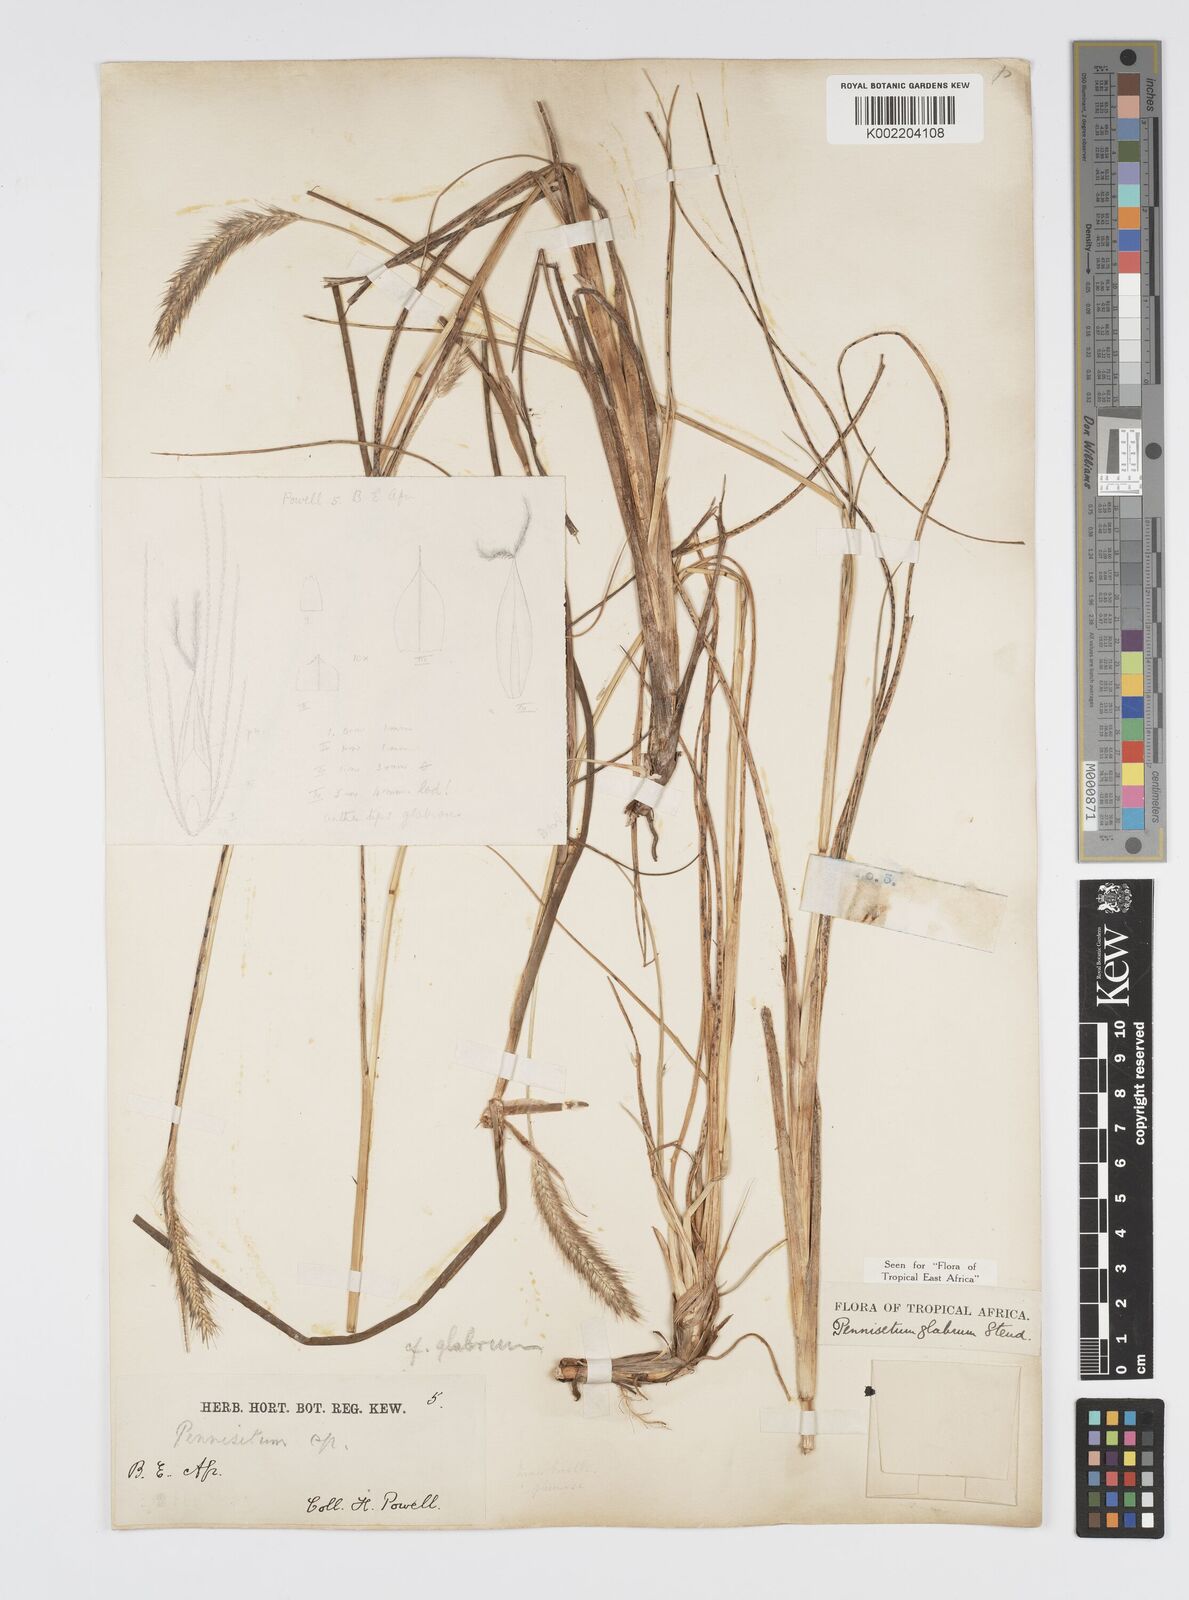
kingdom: Plantae
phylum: Tracheophyta
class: Liliopsida
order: Poales
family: Poaceae
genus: Cenchrus
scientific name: Cenchrus geniculatus
